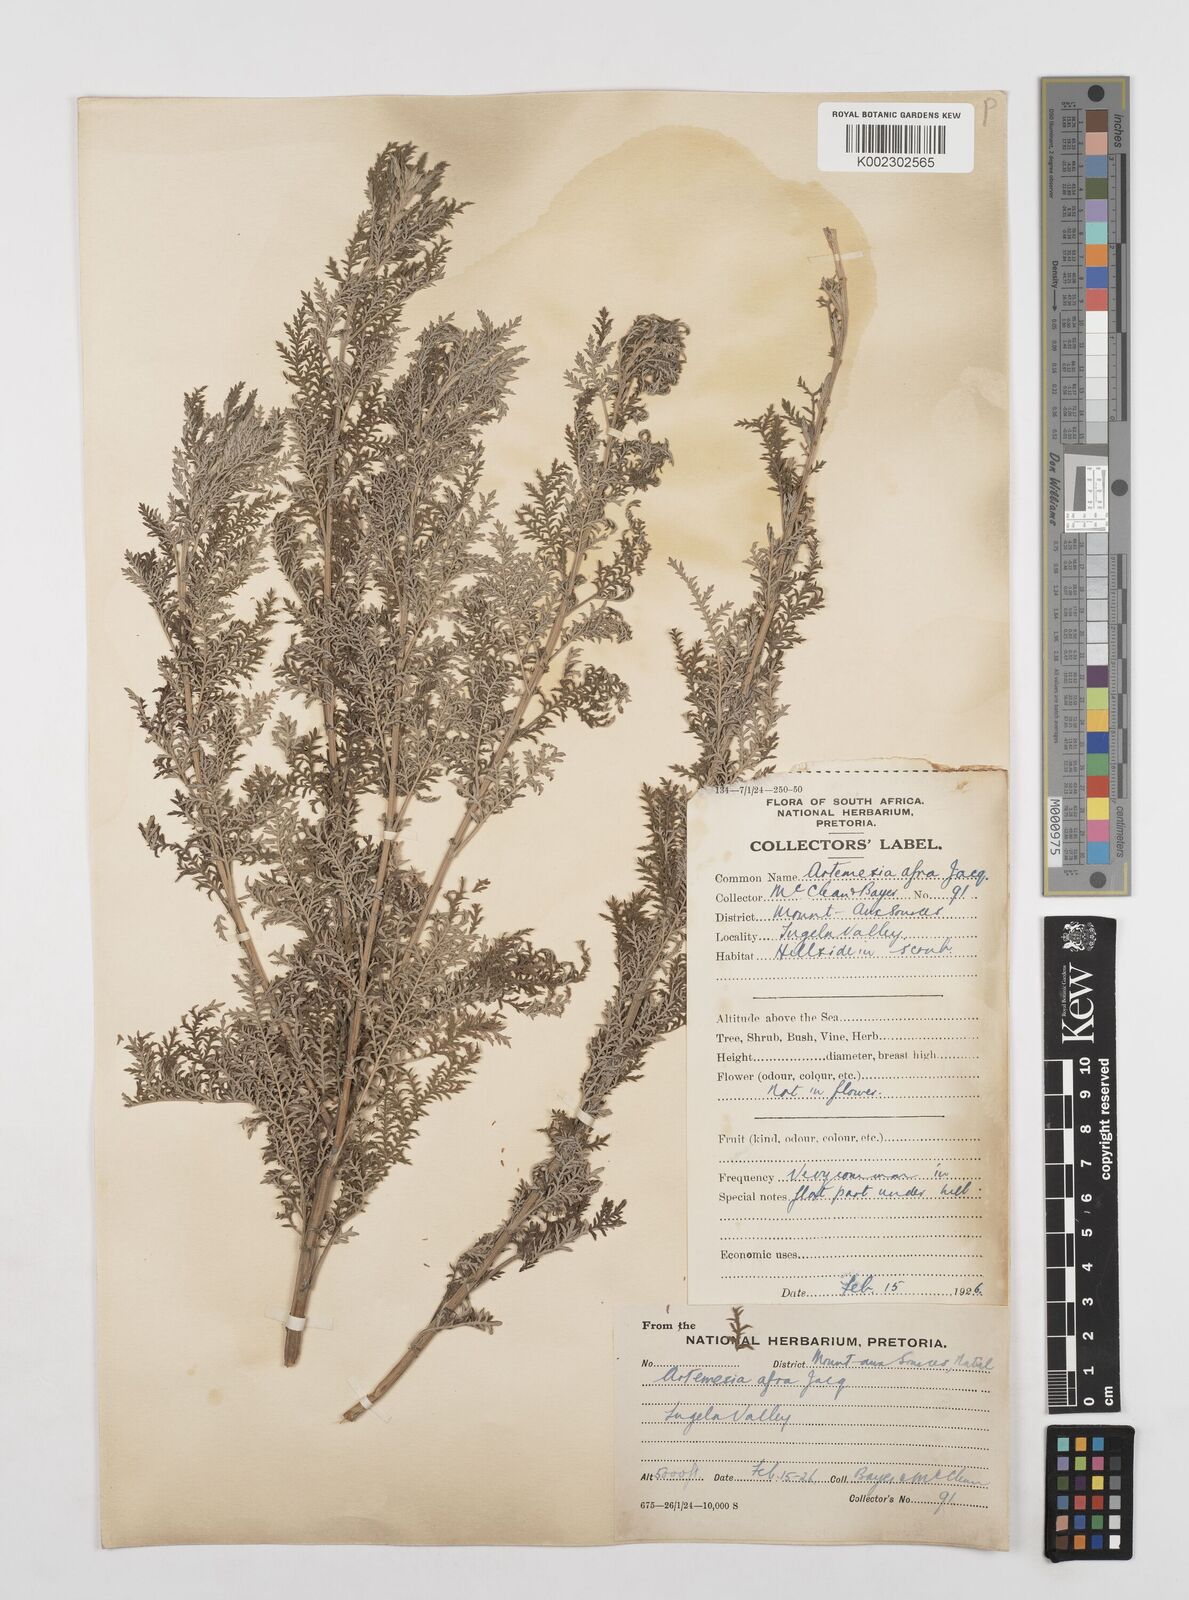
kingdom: Plantae
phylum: Tracheophyta
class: Magnoliopsida
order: Asterales
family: Asteraceae
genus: Artemisia
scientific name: Artemisia afra
